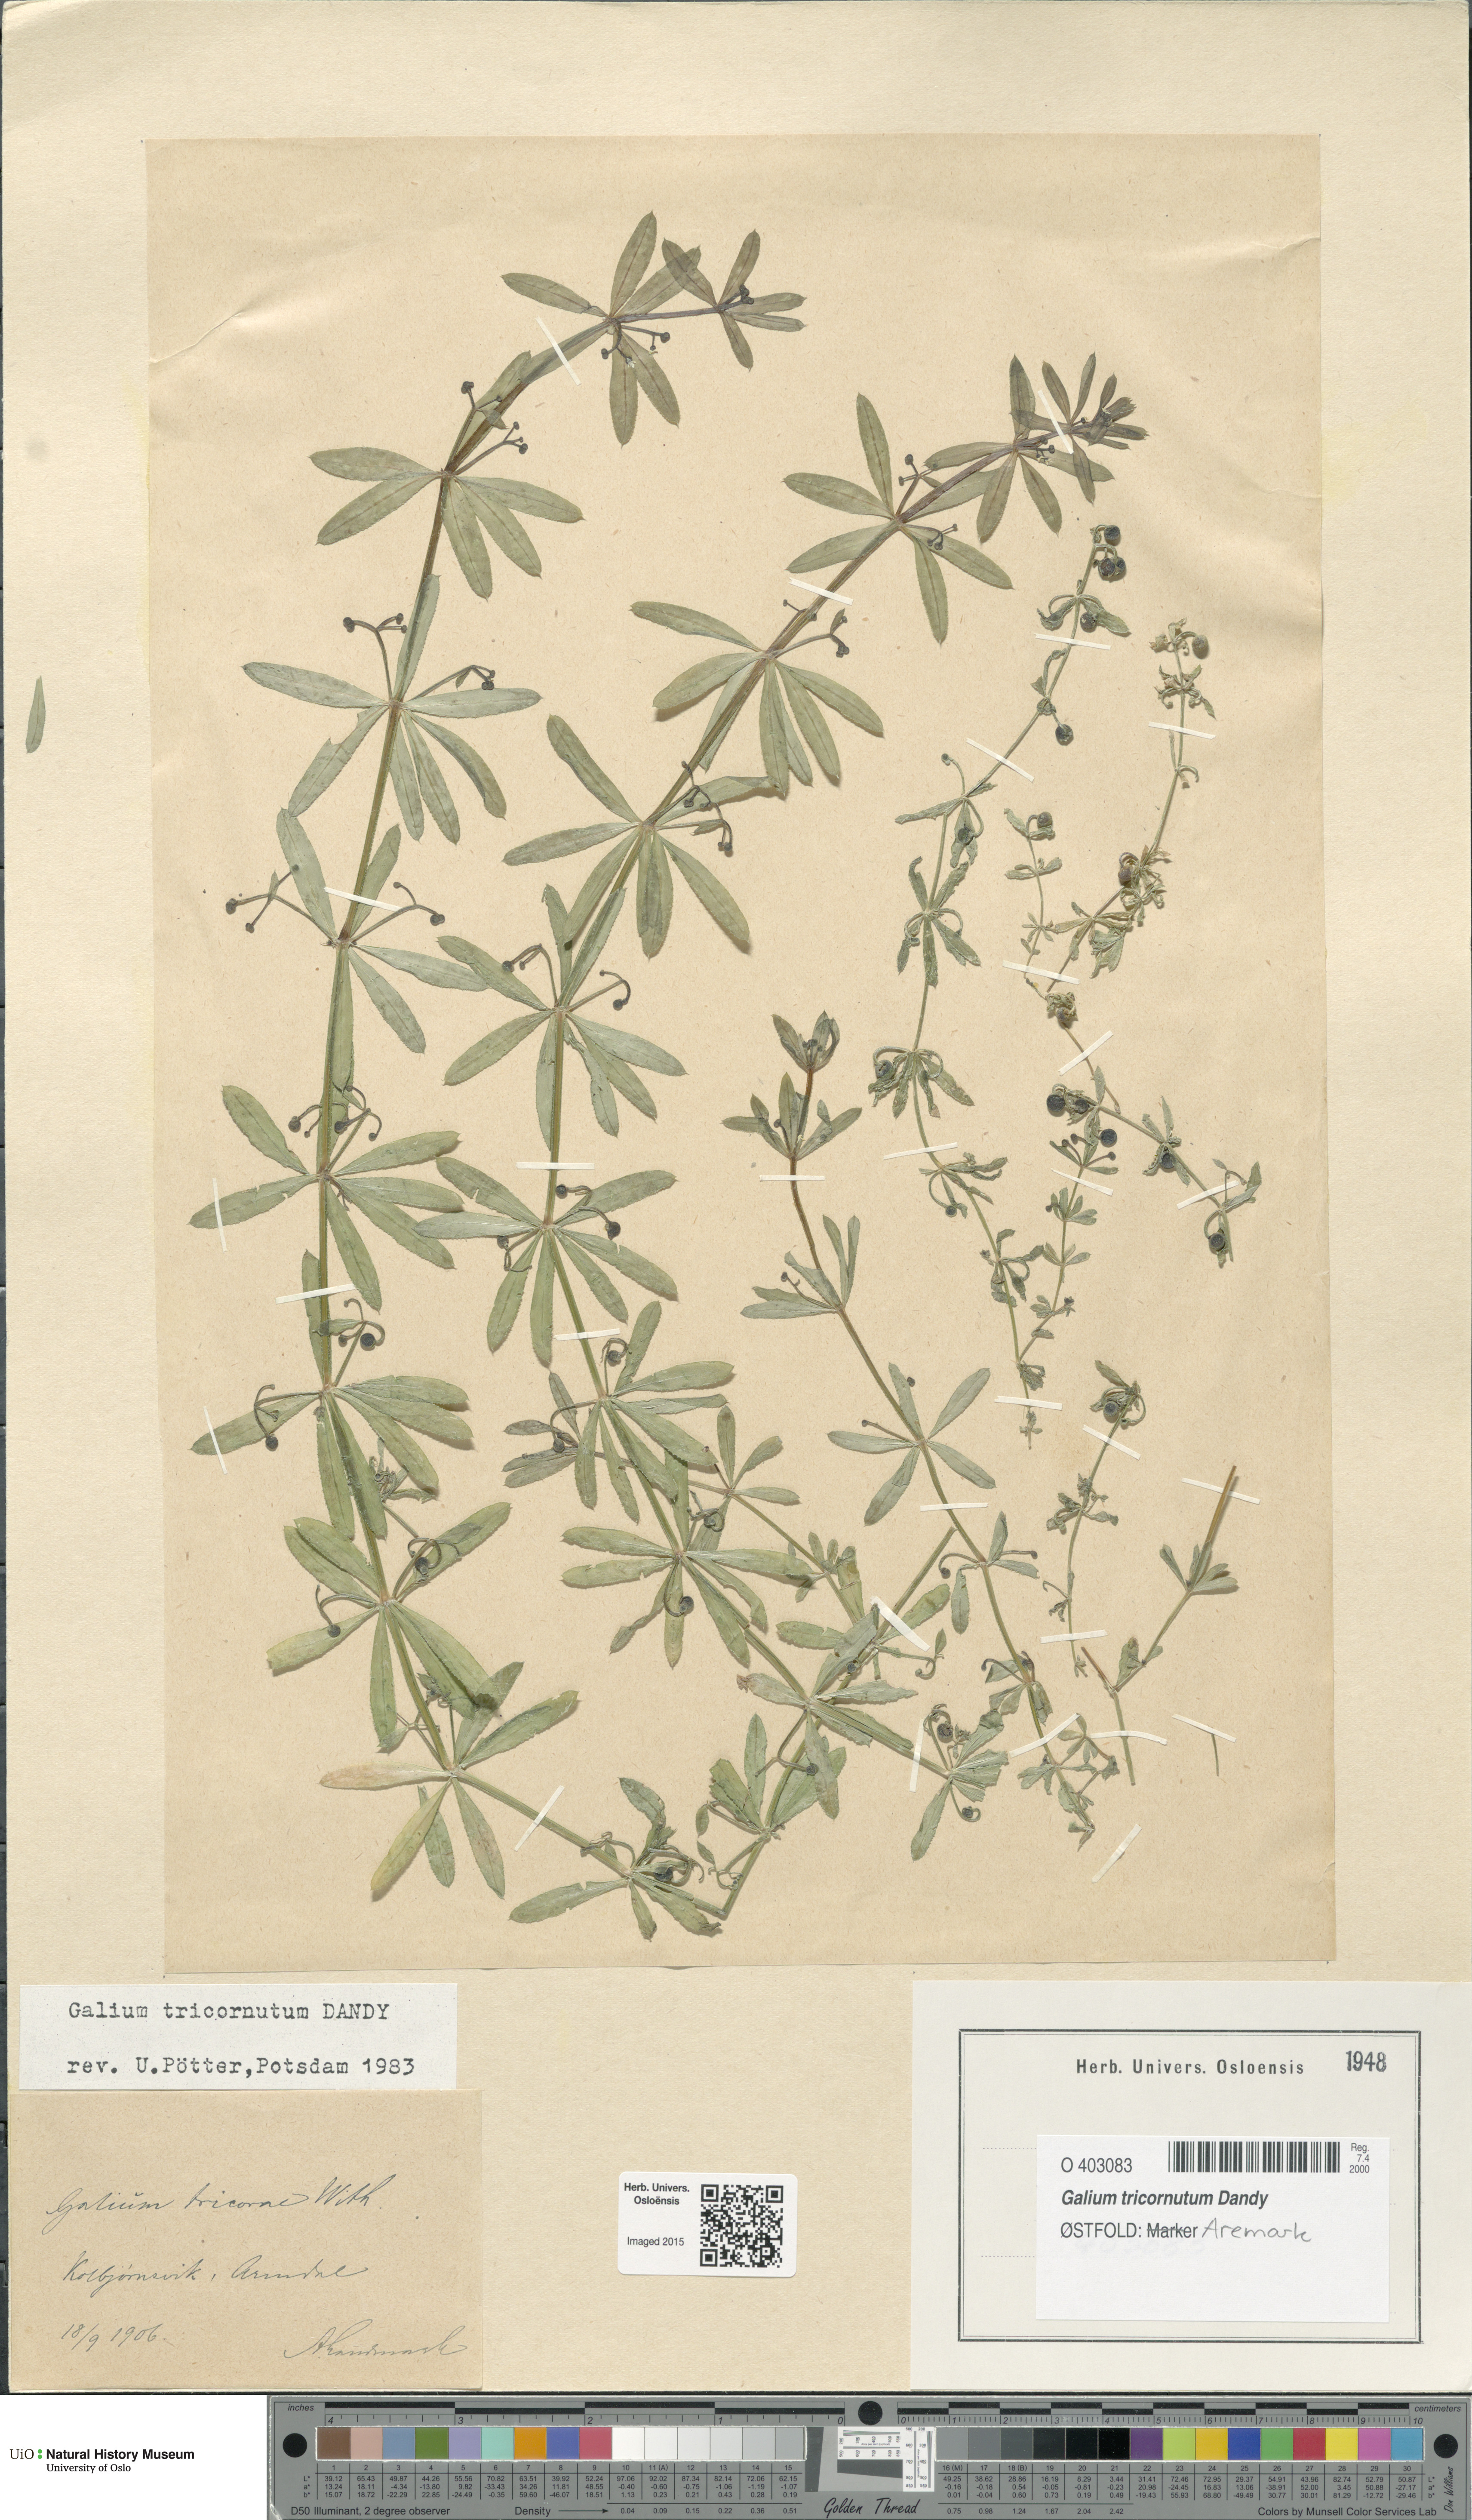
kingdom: Plantae
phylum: Tracheophyta
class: Magnoliopsida
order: Gentianales
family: Rubiaceae
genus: Galium
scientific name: Galium tricornutum
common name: Corn cleavers
